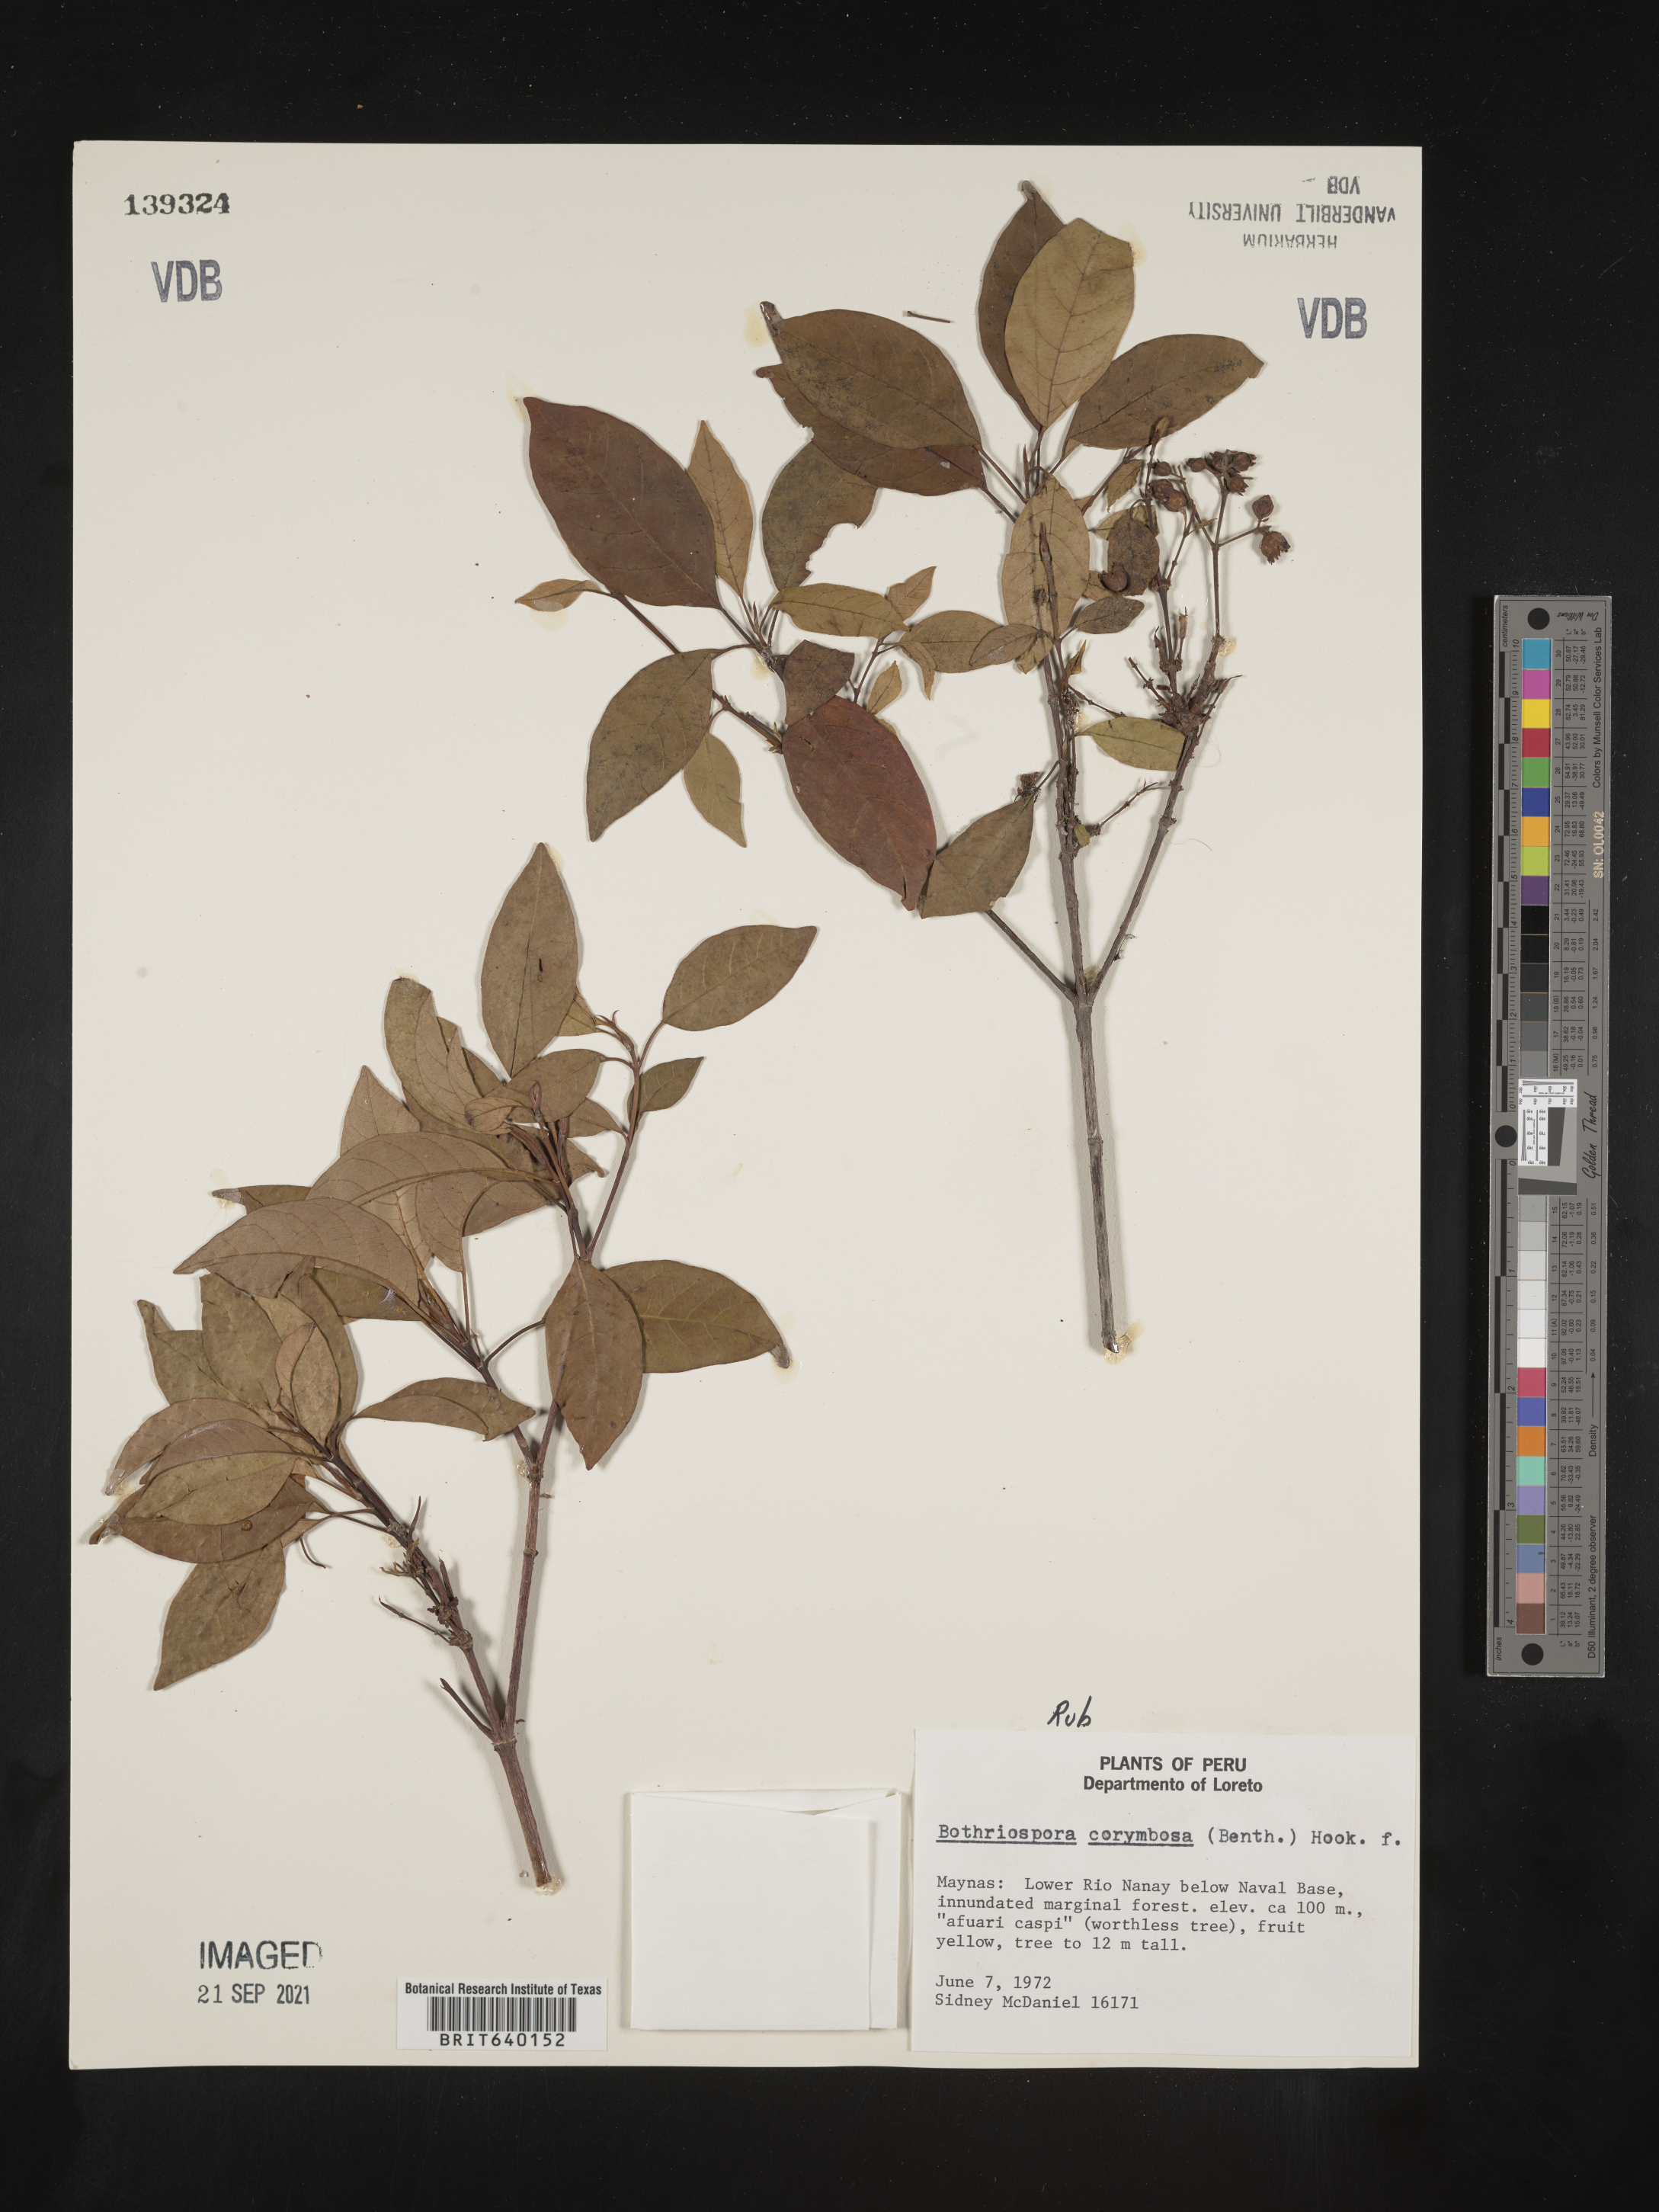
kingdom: Plantae
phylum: Tracheophyta
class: Magnoliopsida
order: Gentianales
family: Rubiaceae
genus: Bothriospora
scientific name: Bothriospora
